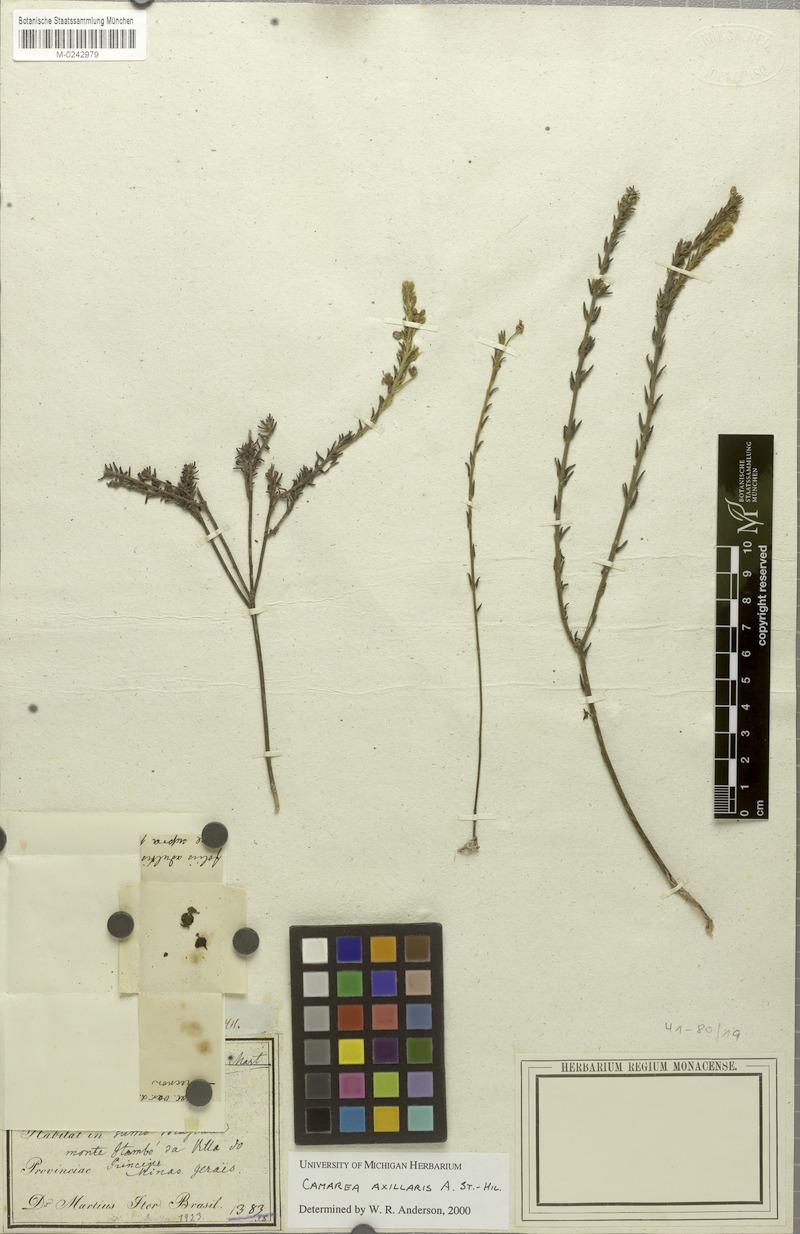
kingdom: Plantae
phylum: Tracheophyta
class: Magnoliopsida
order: Malpighiales
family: Malpighiaceae
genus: Camarea
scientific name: Camarea axillaris
